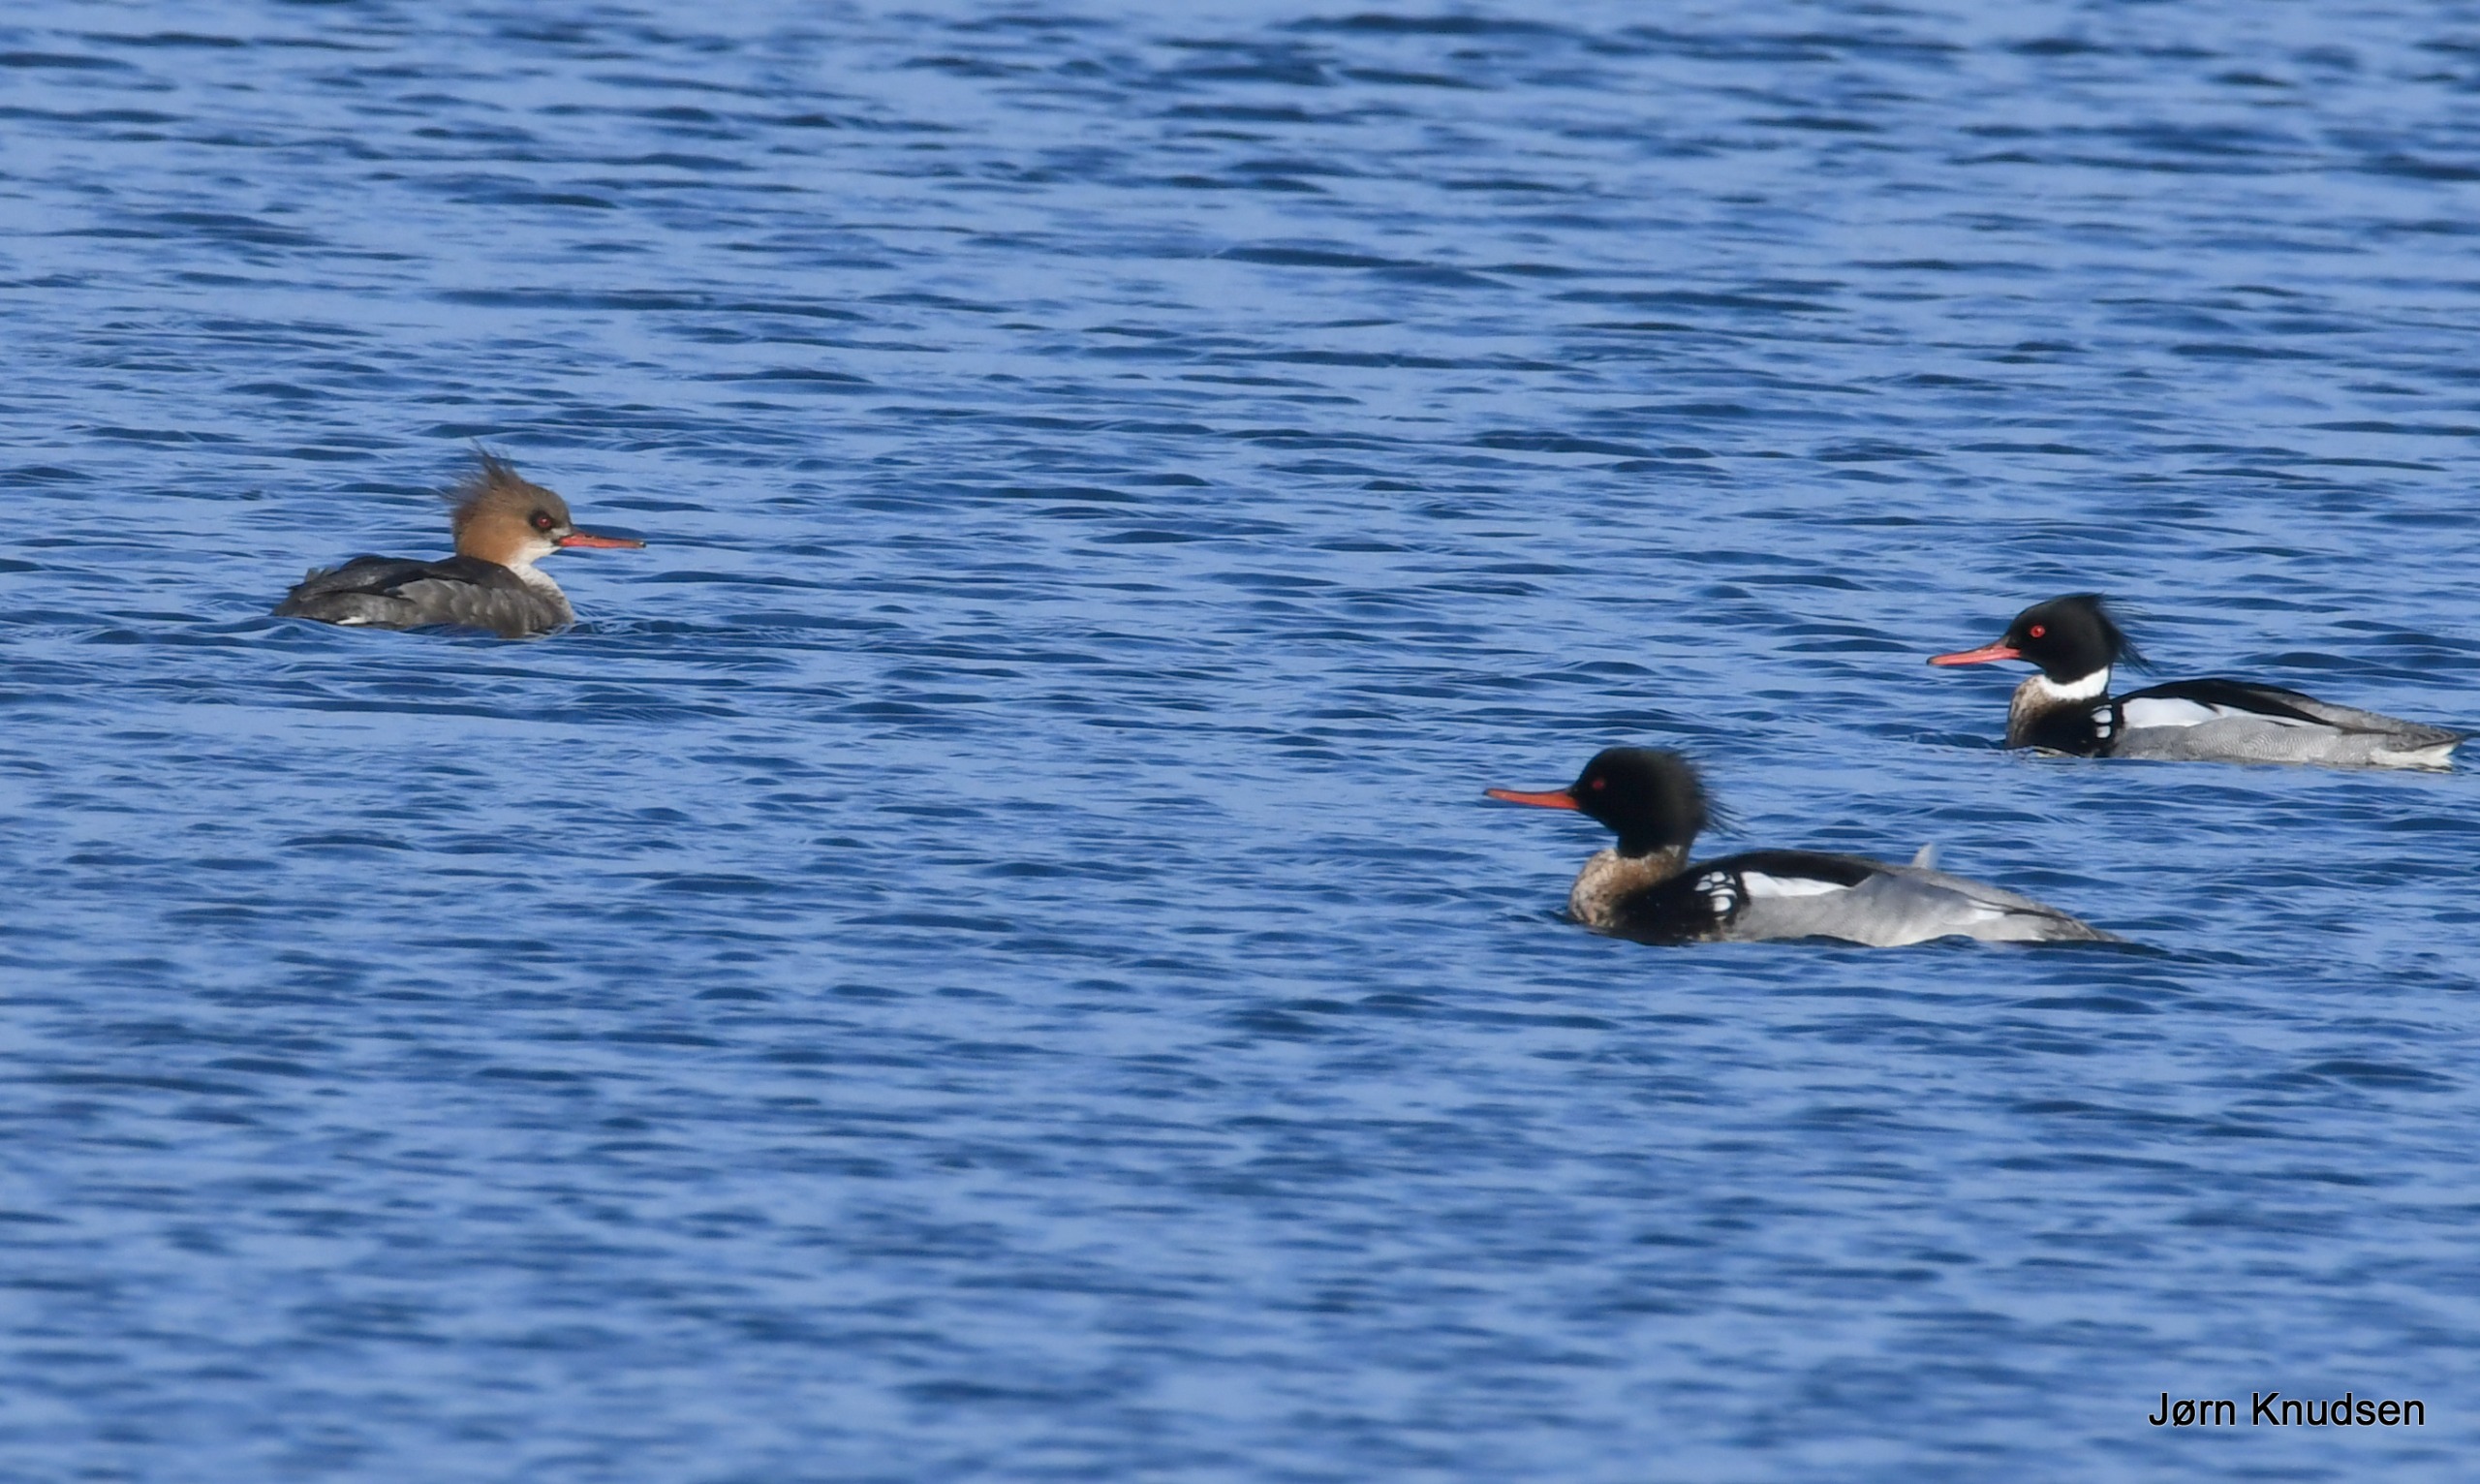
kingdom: Animalia
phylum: Chordata
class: Aves
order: Anseriformes
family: Anatidae
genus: Mergus
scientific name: Mergus serrator
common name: Toppet skallesluger
